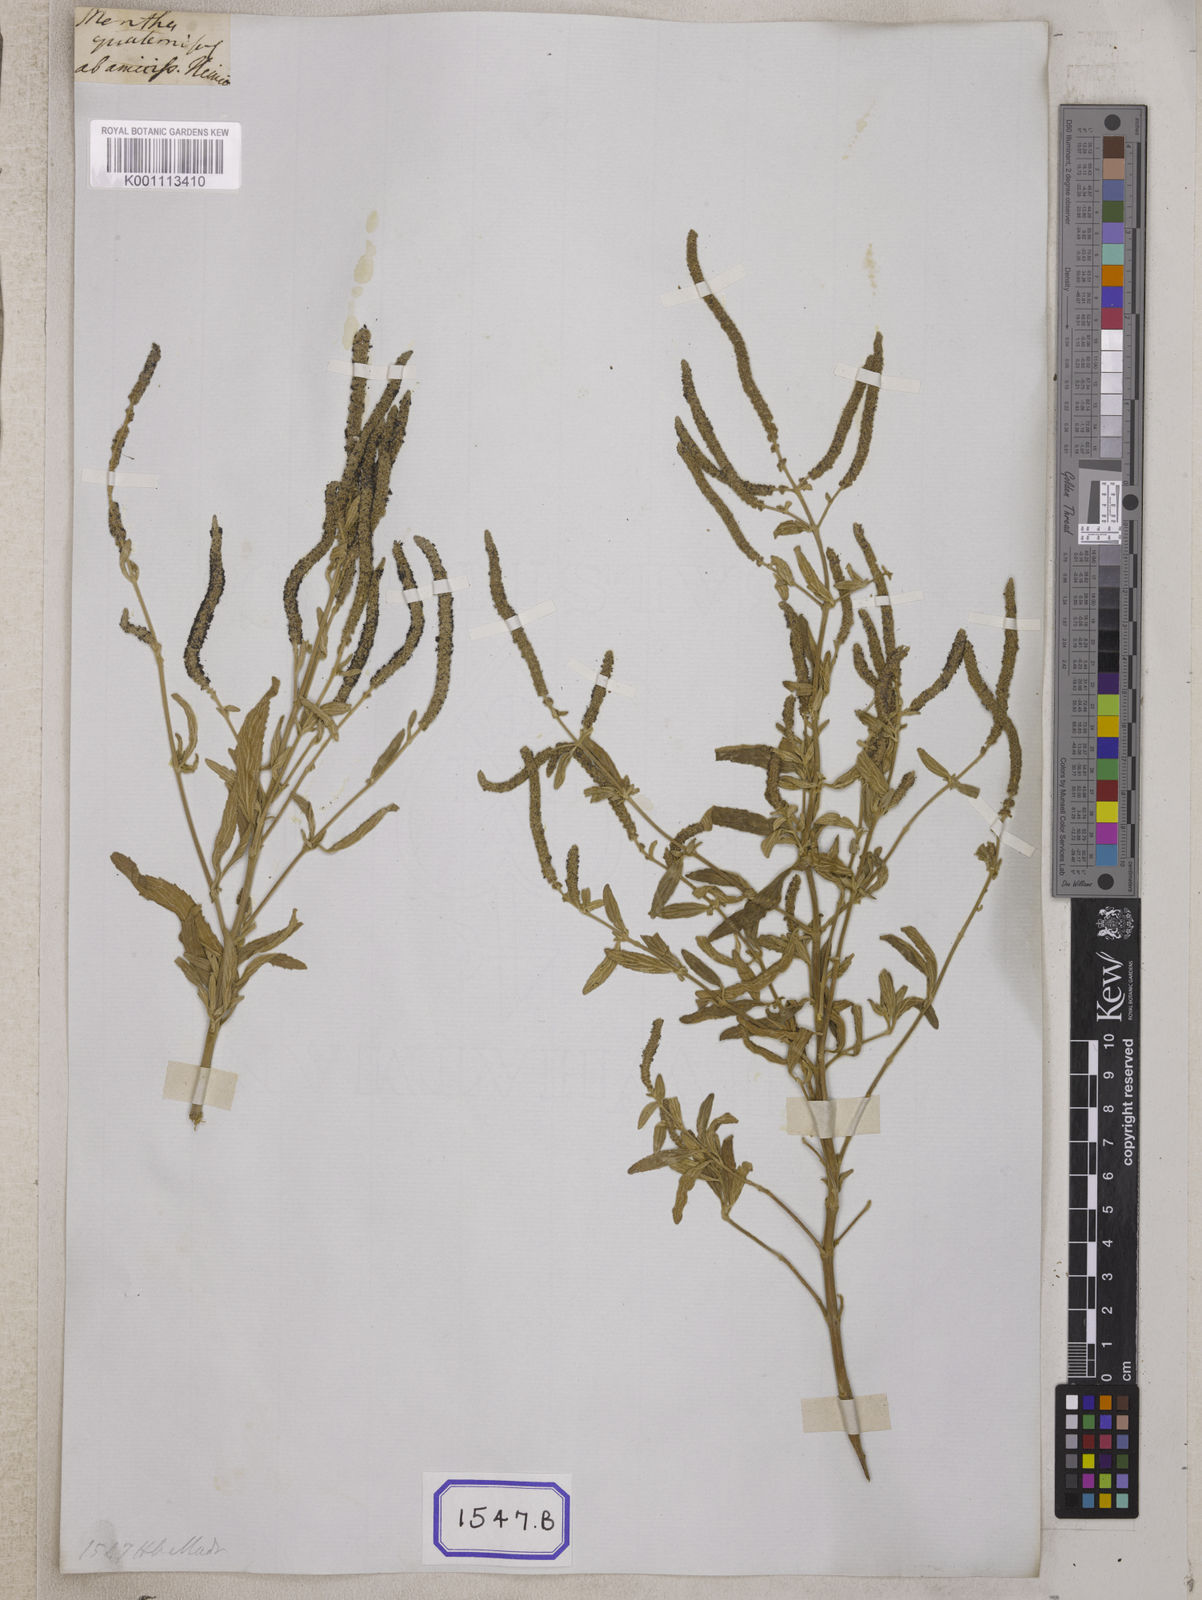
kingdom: Plantae
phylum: Tracheophyta
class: Magnoliopsida
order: Lamiales
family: Lamiaceae
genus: Pogostemon
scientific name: Pogostemon myosuroides
